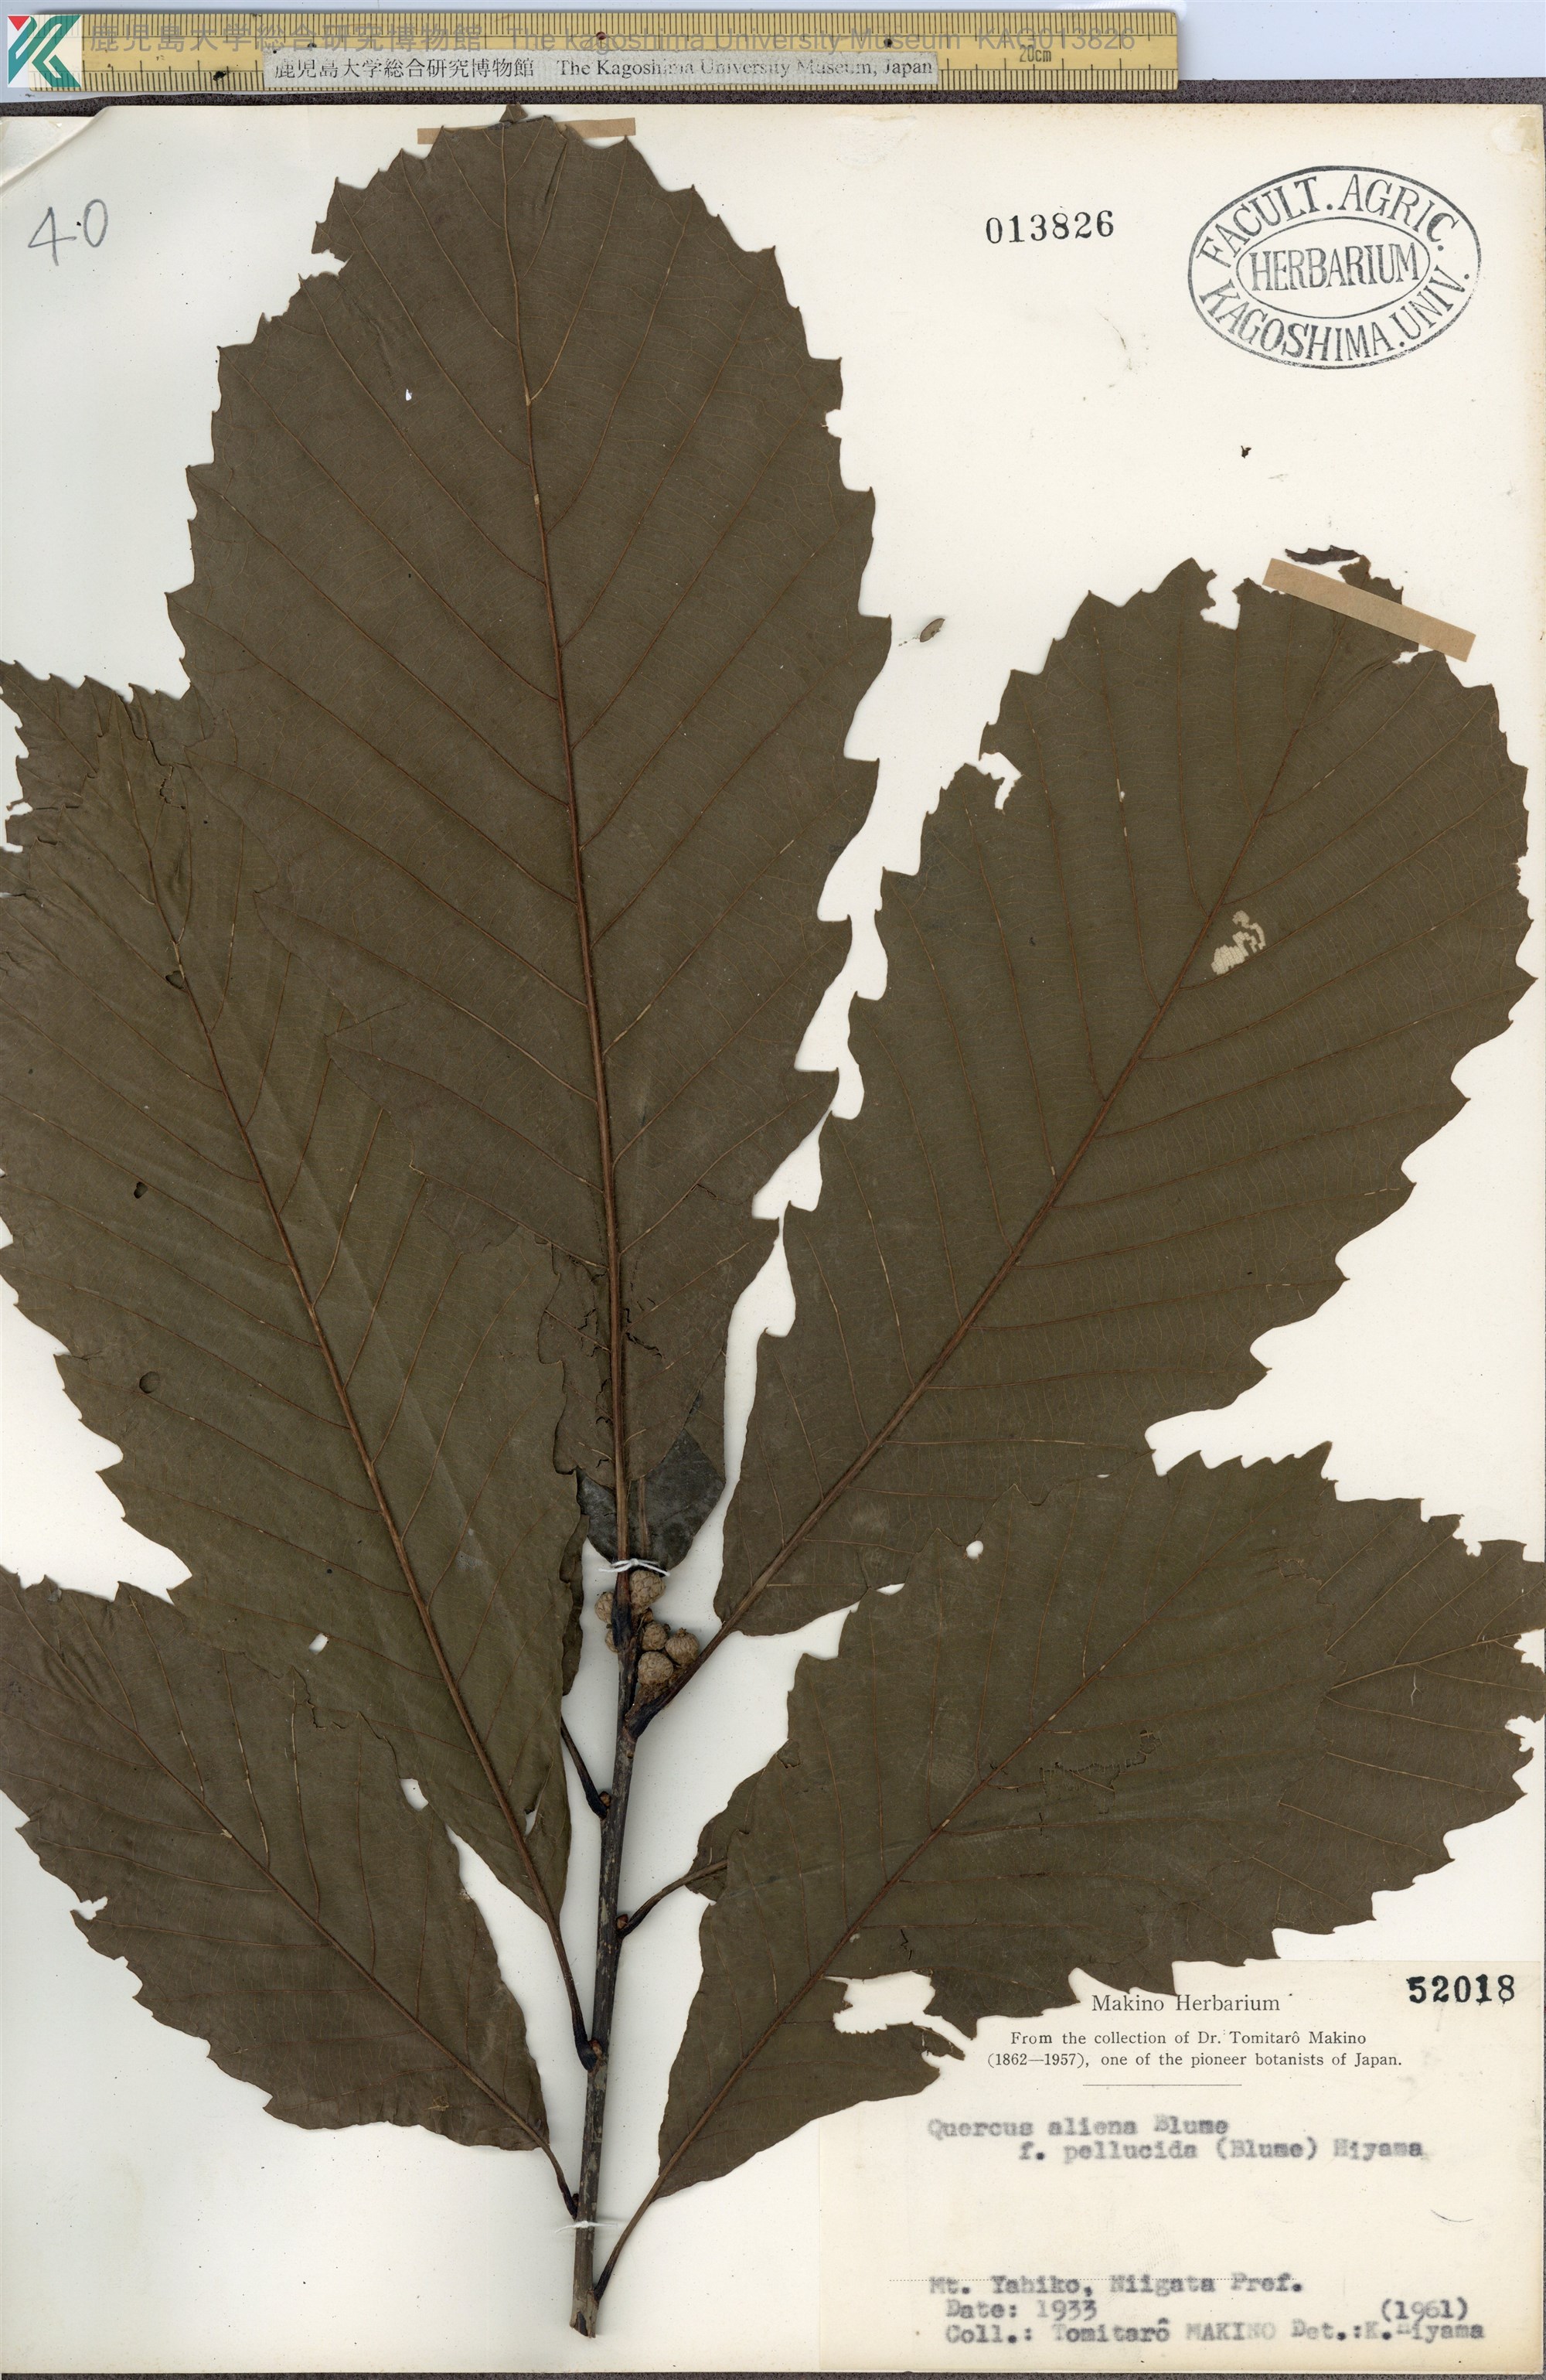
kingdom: Plantae
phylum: Tracheophyta
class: Magnoliopsida
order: Fagales
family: Fagaceae
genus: Quercus
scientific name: Quercus aliena
